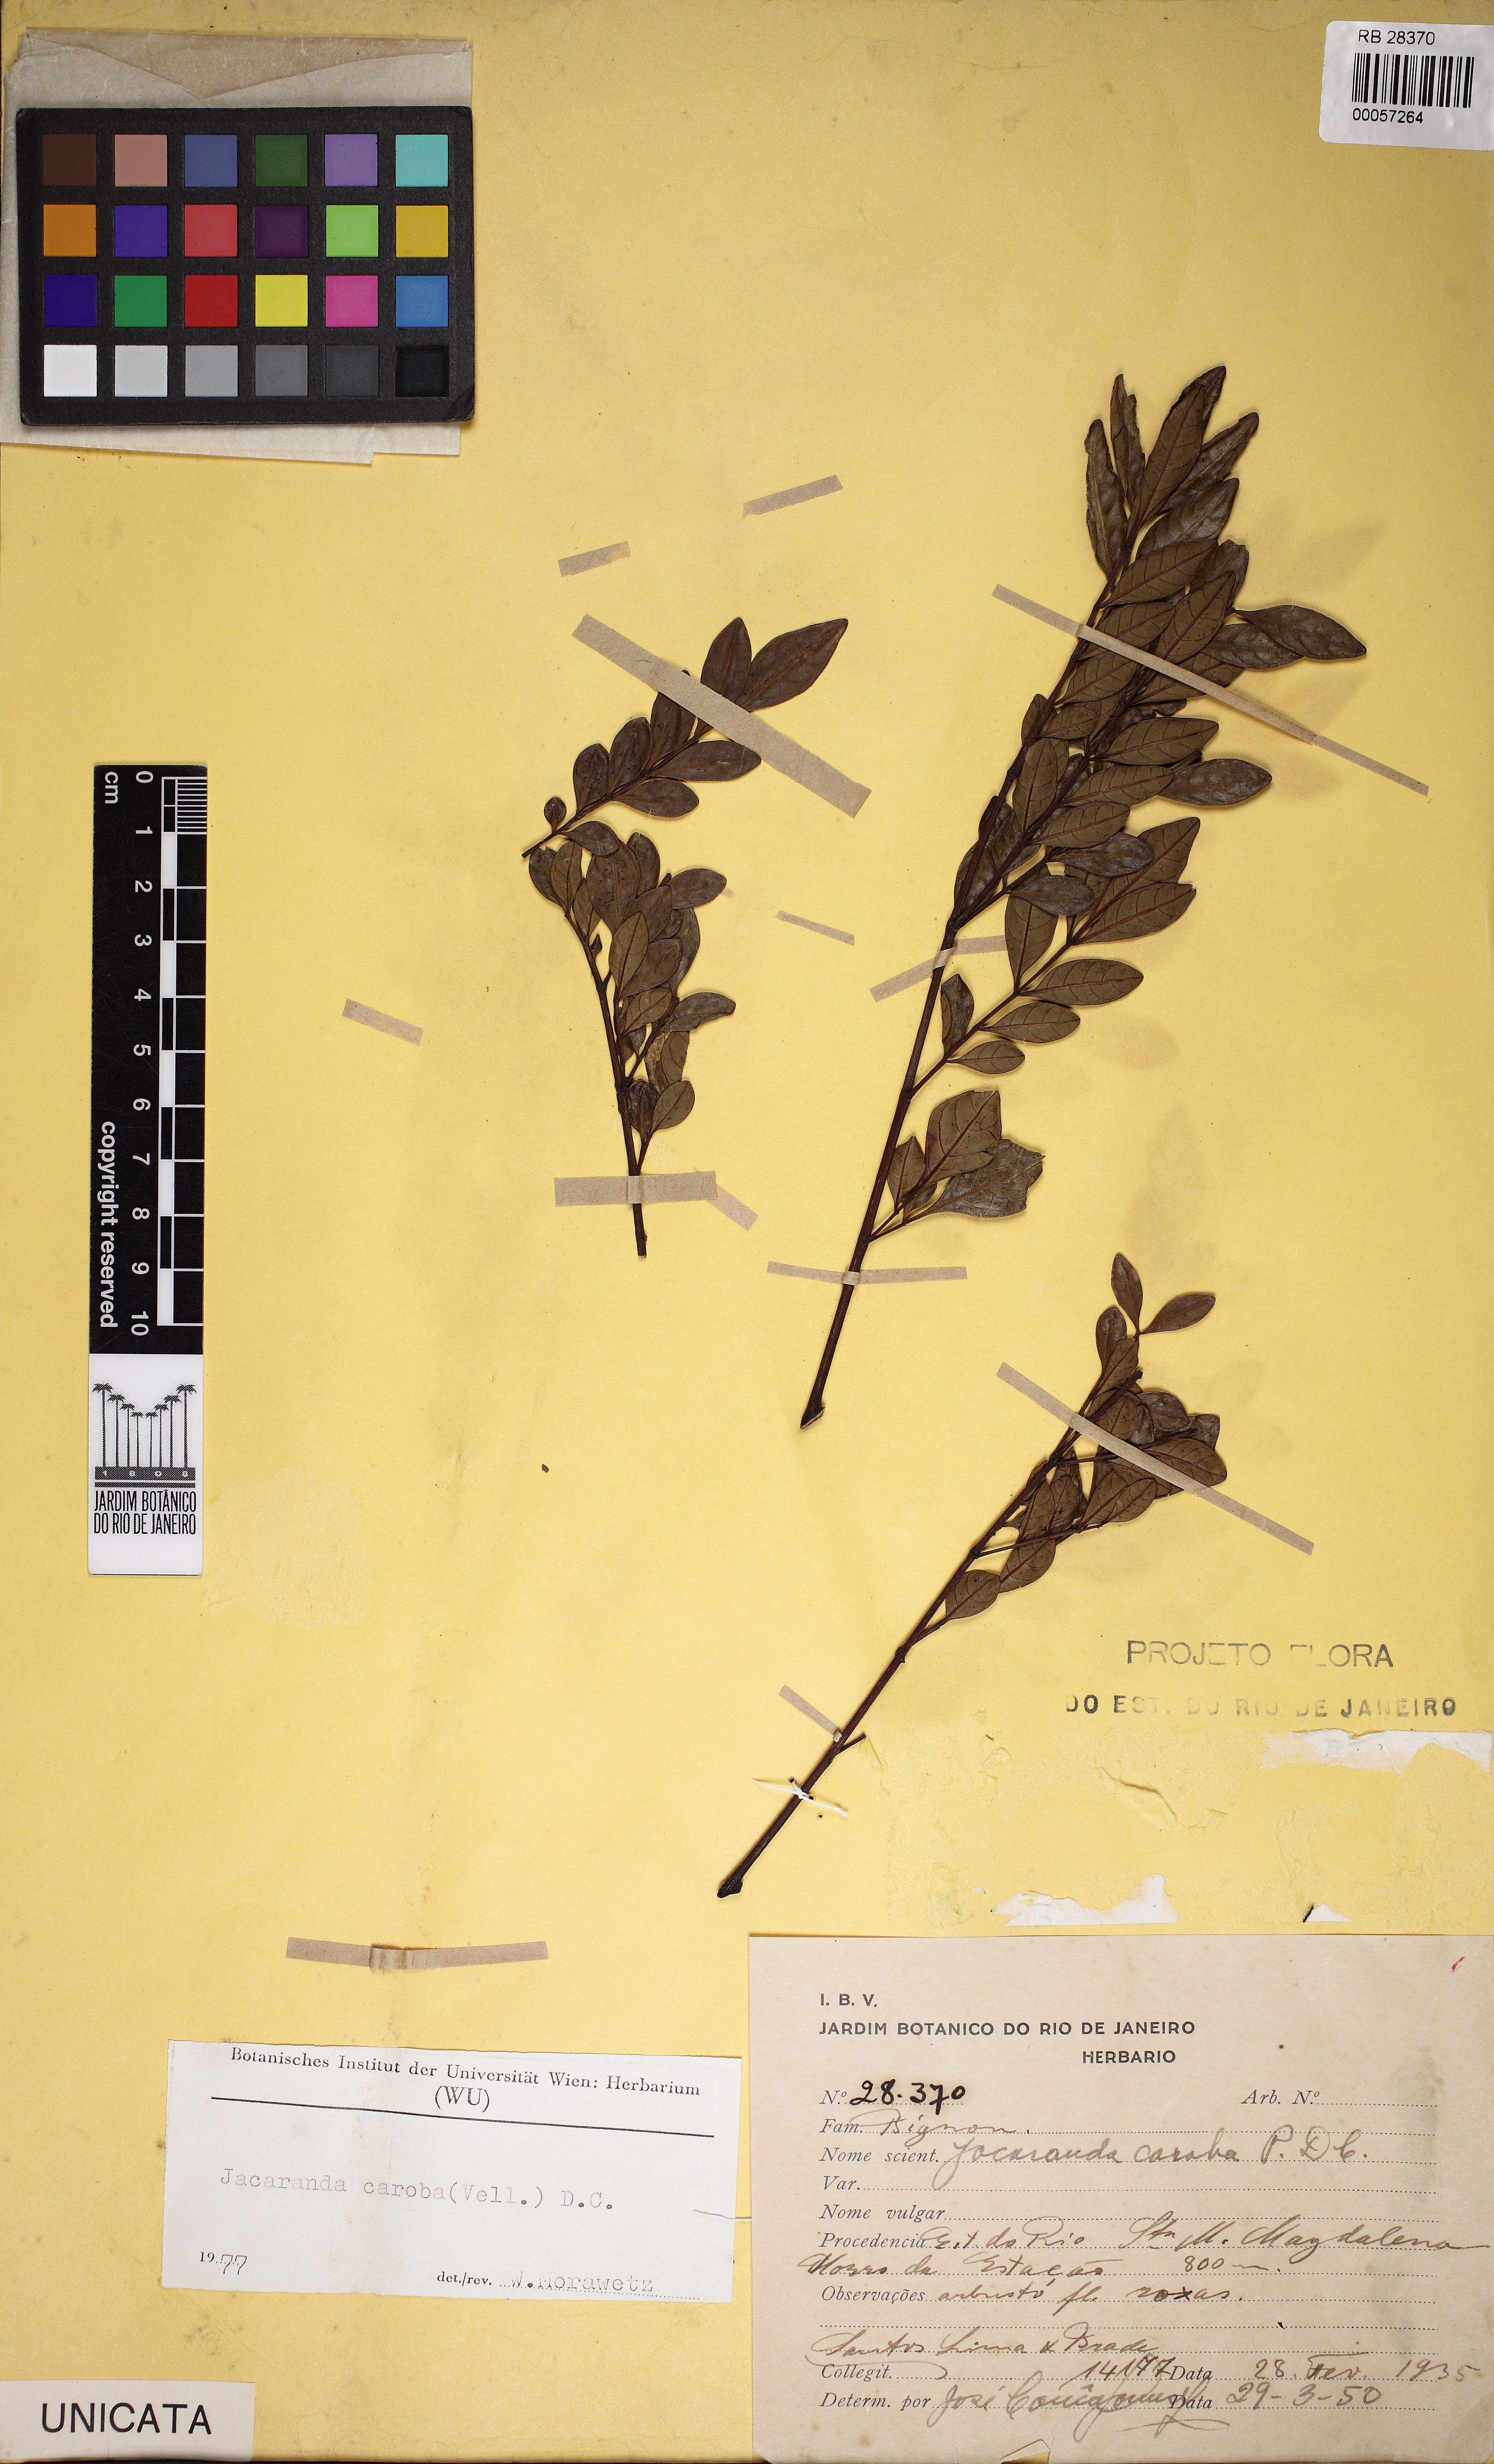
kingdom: Plantae
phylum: Tracheophyta
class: Magnoliopsida
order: Lamiales
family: Bignoniaceae
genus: Jacaranda
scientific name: Jacaranda caroba
